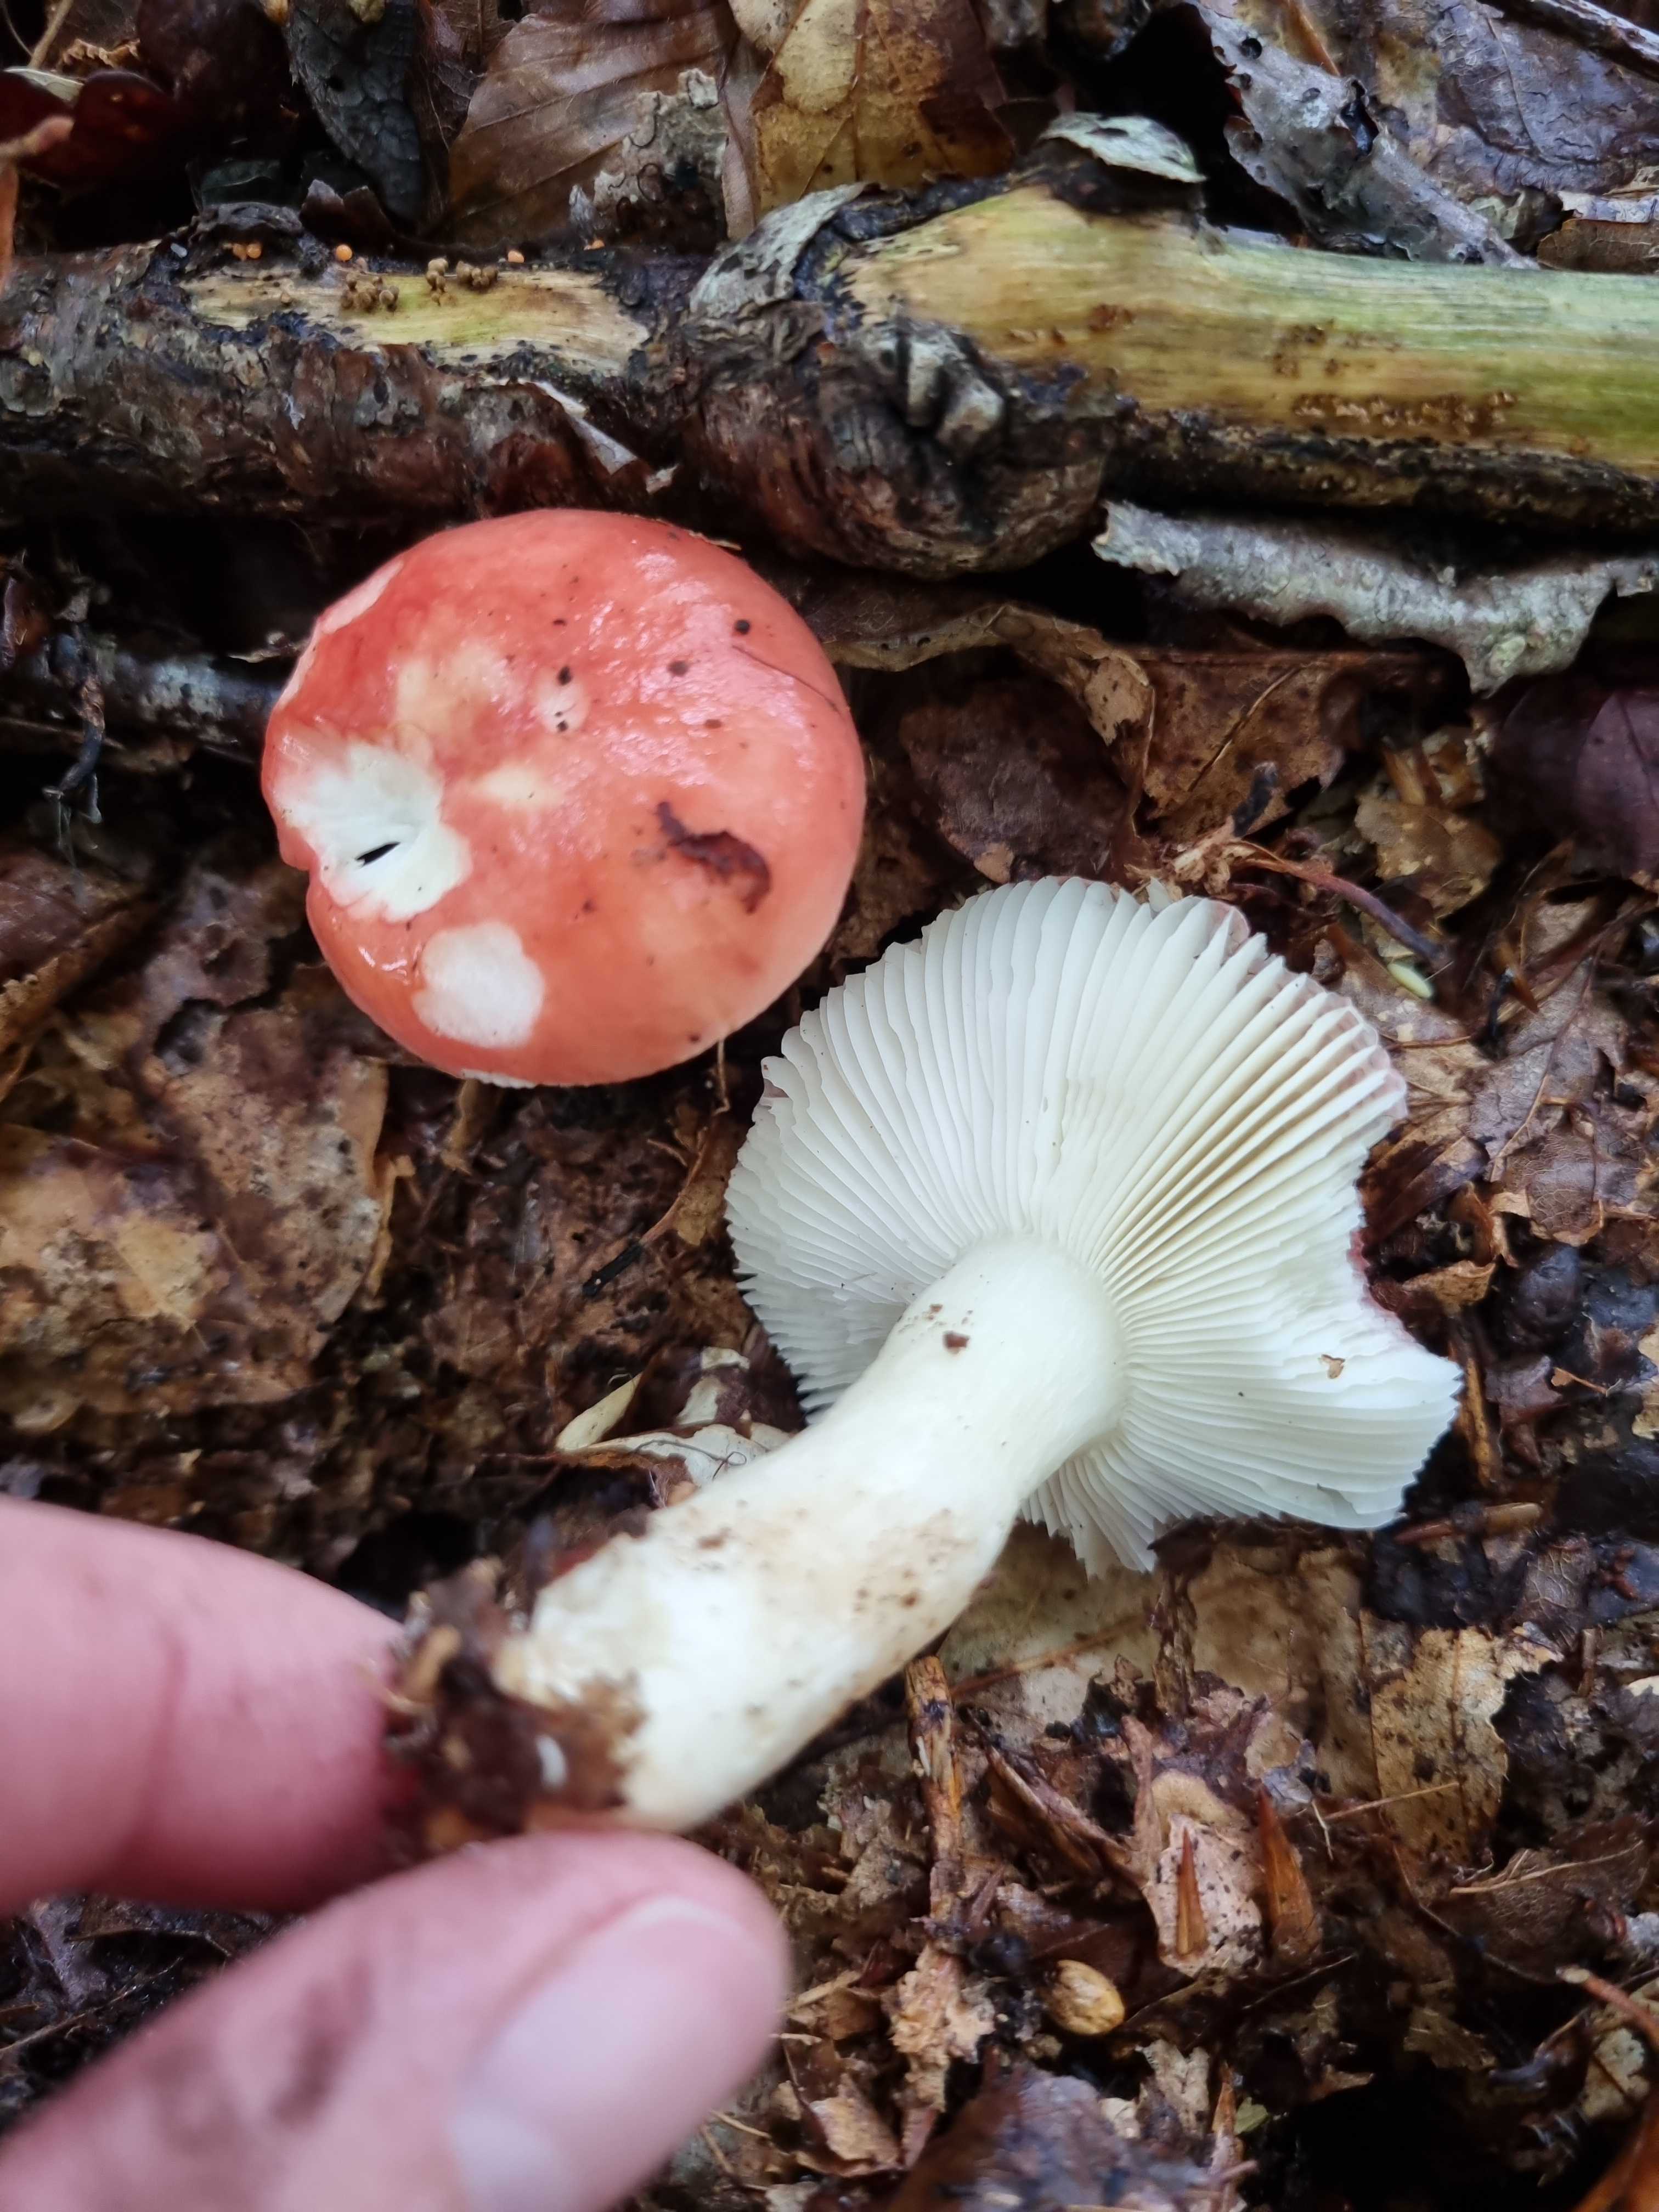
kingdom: Fungi
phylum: Basidiomycota
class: Agaricomycetes
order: Russulales
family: Russulaceae
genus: Russula
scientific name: Russula
